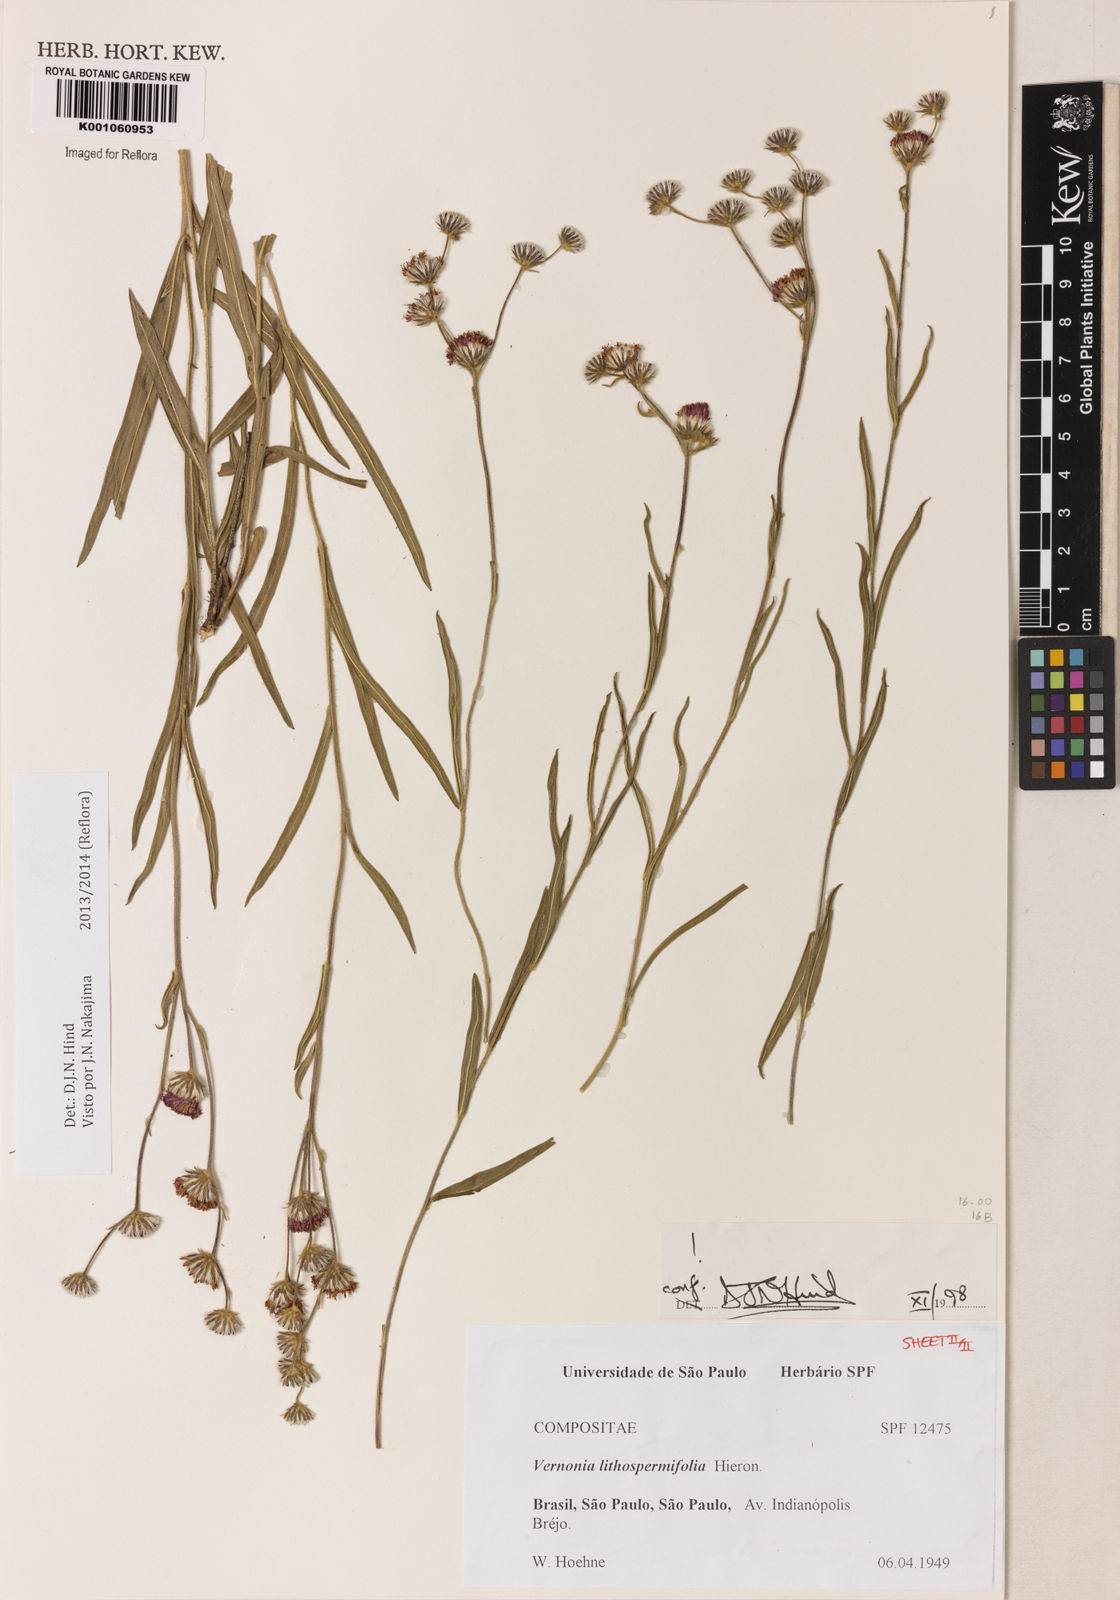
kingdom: Plantae
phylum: Tracheophyta
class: Magnoliopsida
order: Asterales
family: Asteraceae
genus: Chrysolaena
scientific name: Chrysolaena lithospermifolia
